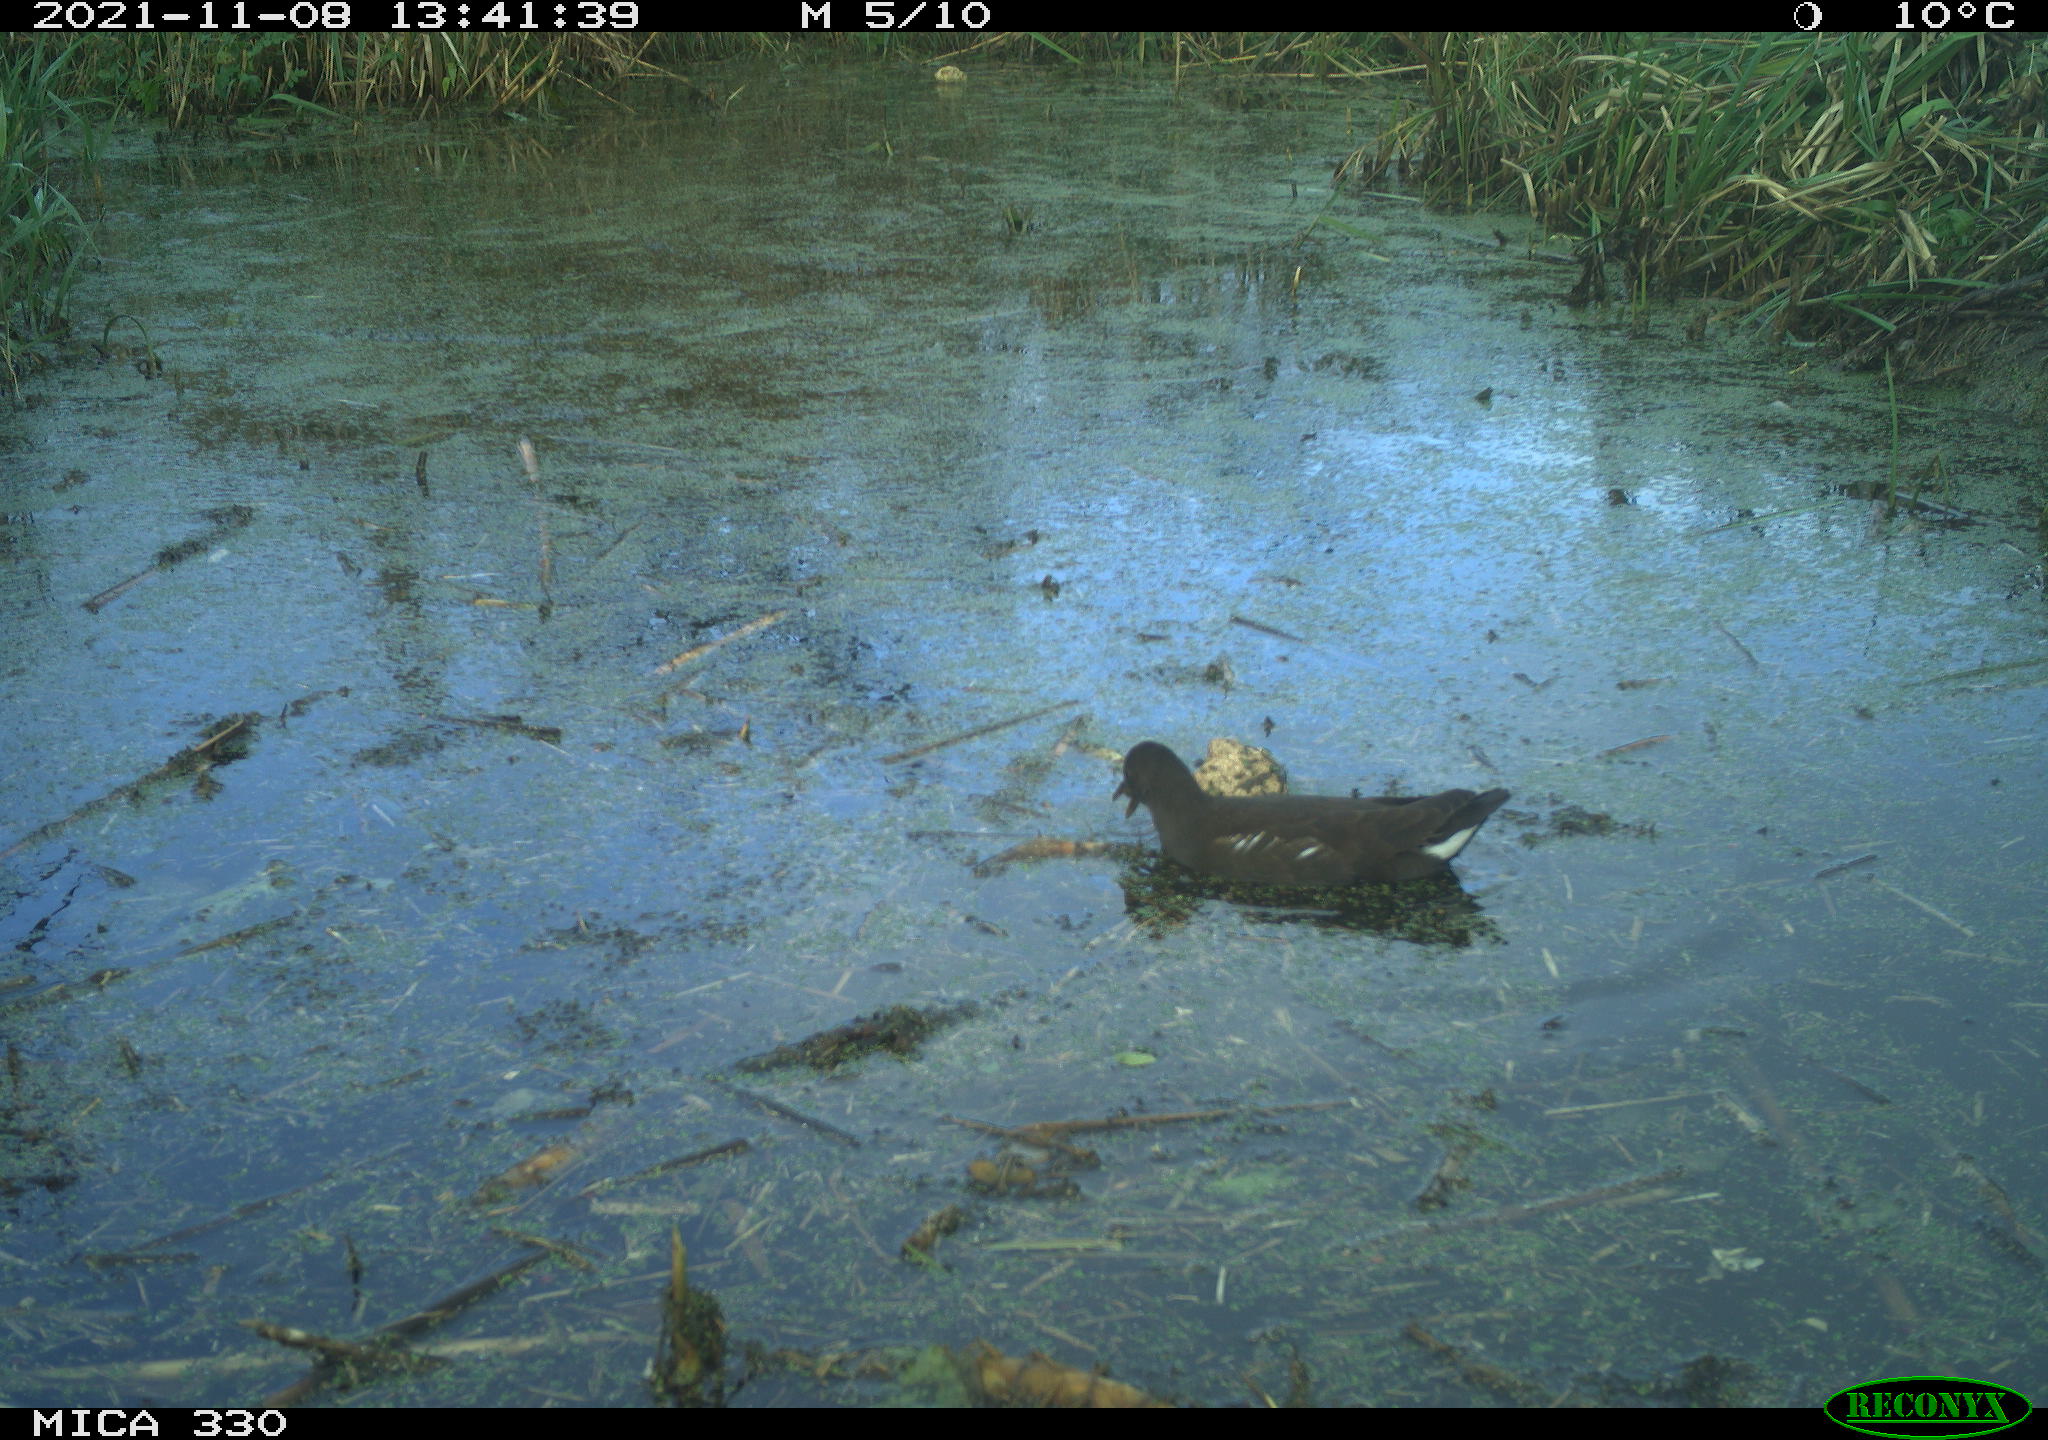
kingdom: Animalia
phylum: Chordata
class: Aves
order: Gruiformes
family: Rallidae
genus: Gallinula
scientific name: Gallinula chloropus
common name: Common moorhen
